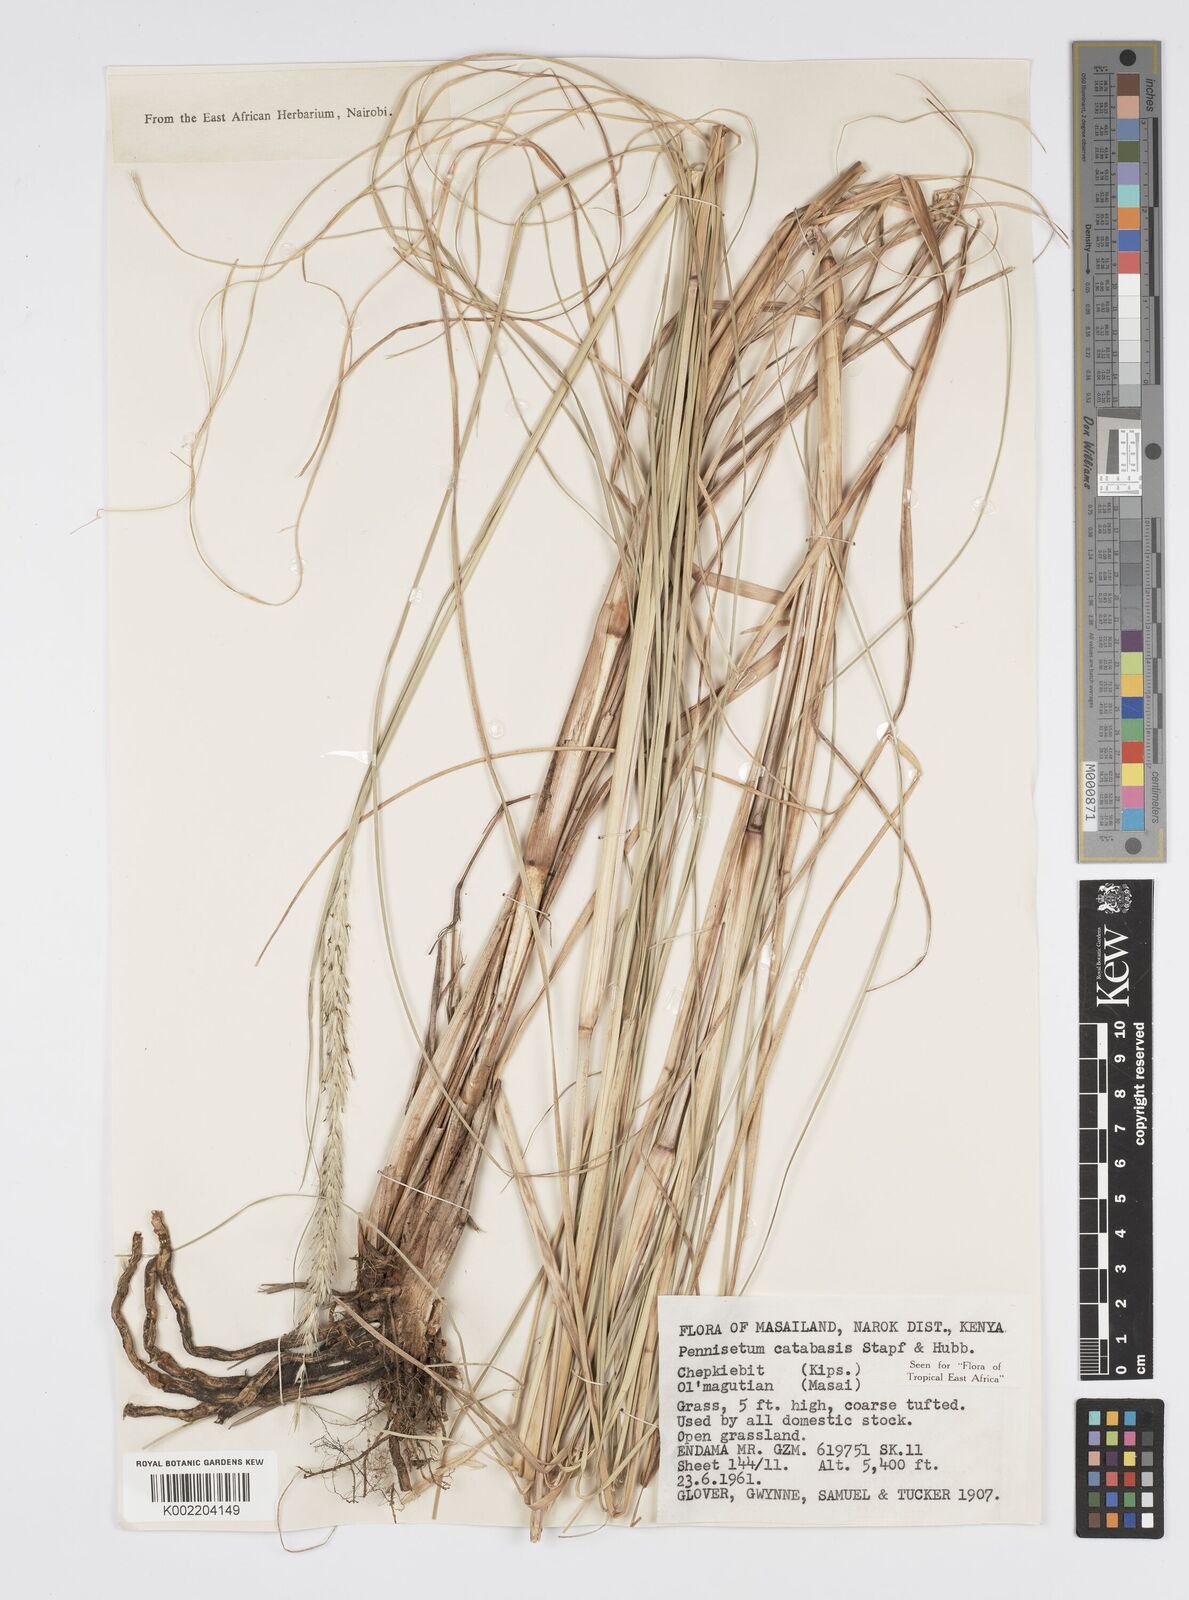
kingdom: Plantae
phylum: Tracheophyta
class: Liliopsida
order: Poales
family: Poaceae
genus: Cenchrus
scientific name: Cenchrus hohenackeri
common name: Moya grass
